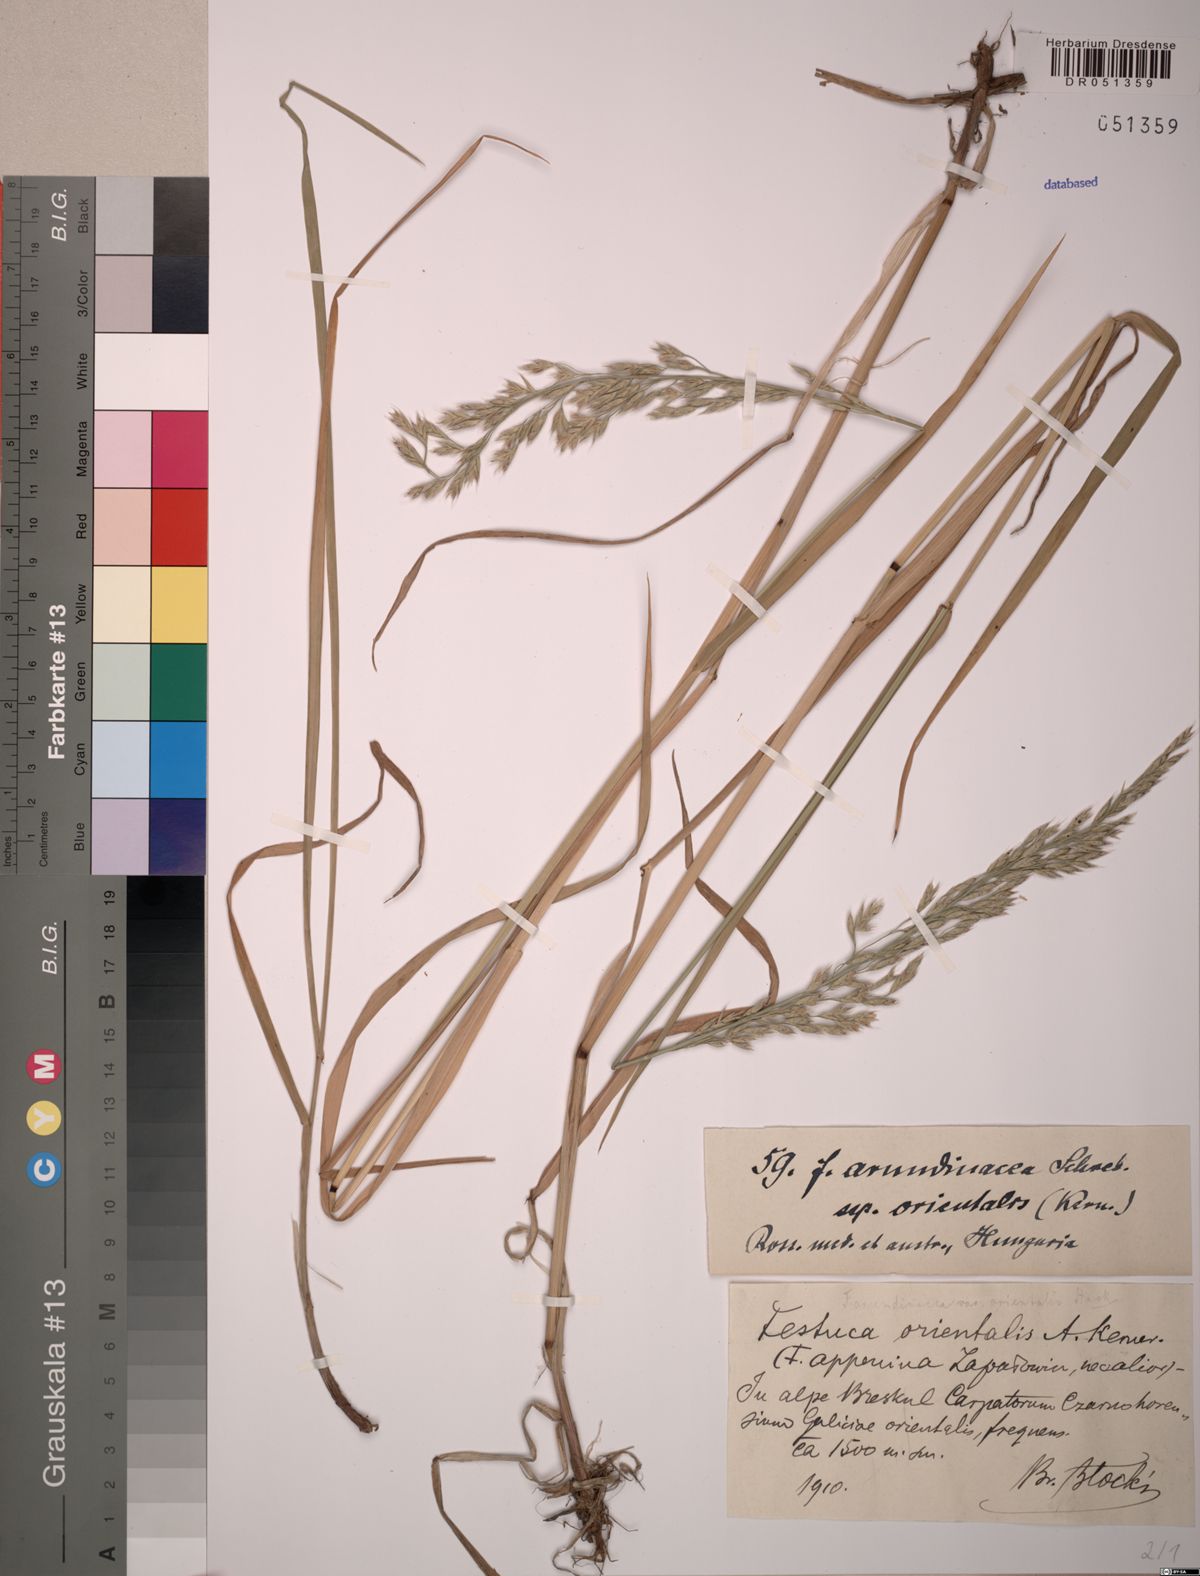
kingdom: Plantae
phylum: Tracheophyta
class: Liliopsida
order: Poales
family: Poaceae
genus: Lolium
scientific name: Lolium arundinaceum
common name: Reed fescue
